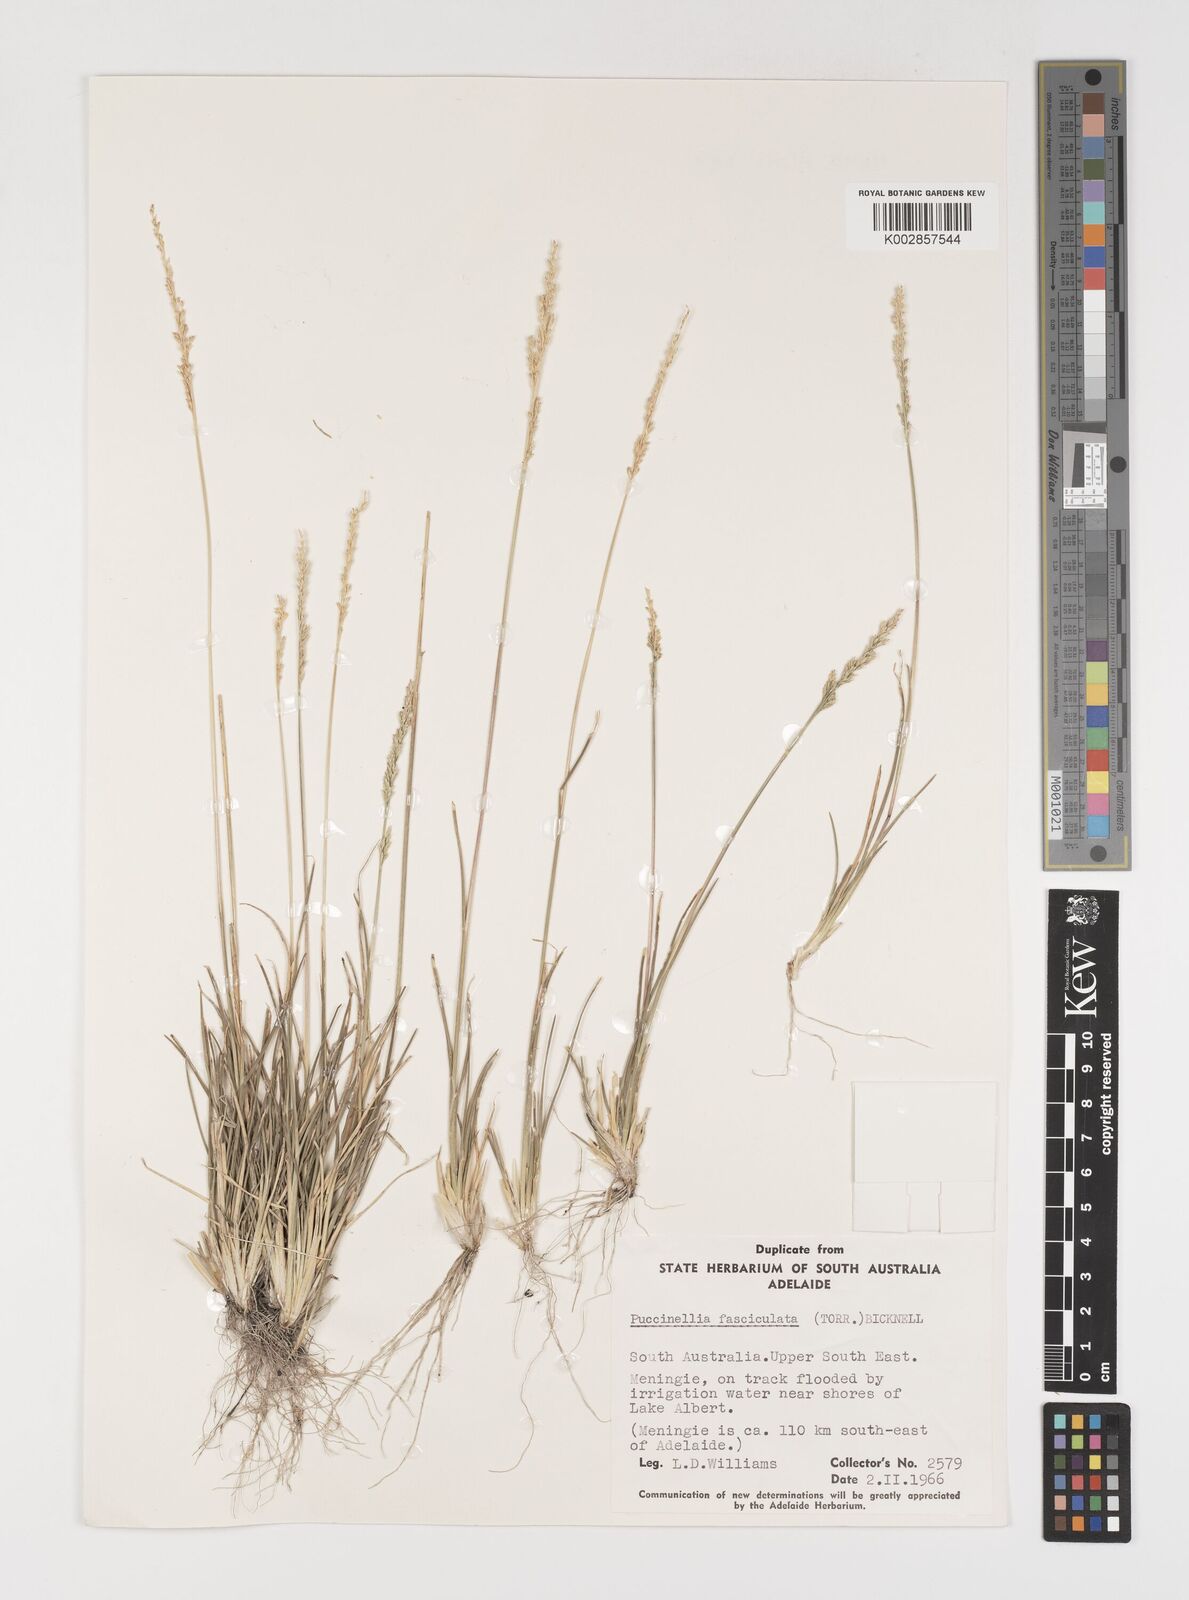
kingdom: Plantae
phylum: Tracheophyta
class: Liliopsida
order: Poales
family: Poaceae
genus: Puccinellia
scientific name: Puccinellia fasciculata
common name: Borrer's saltmarsh-grass
